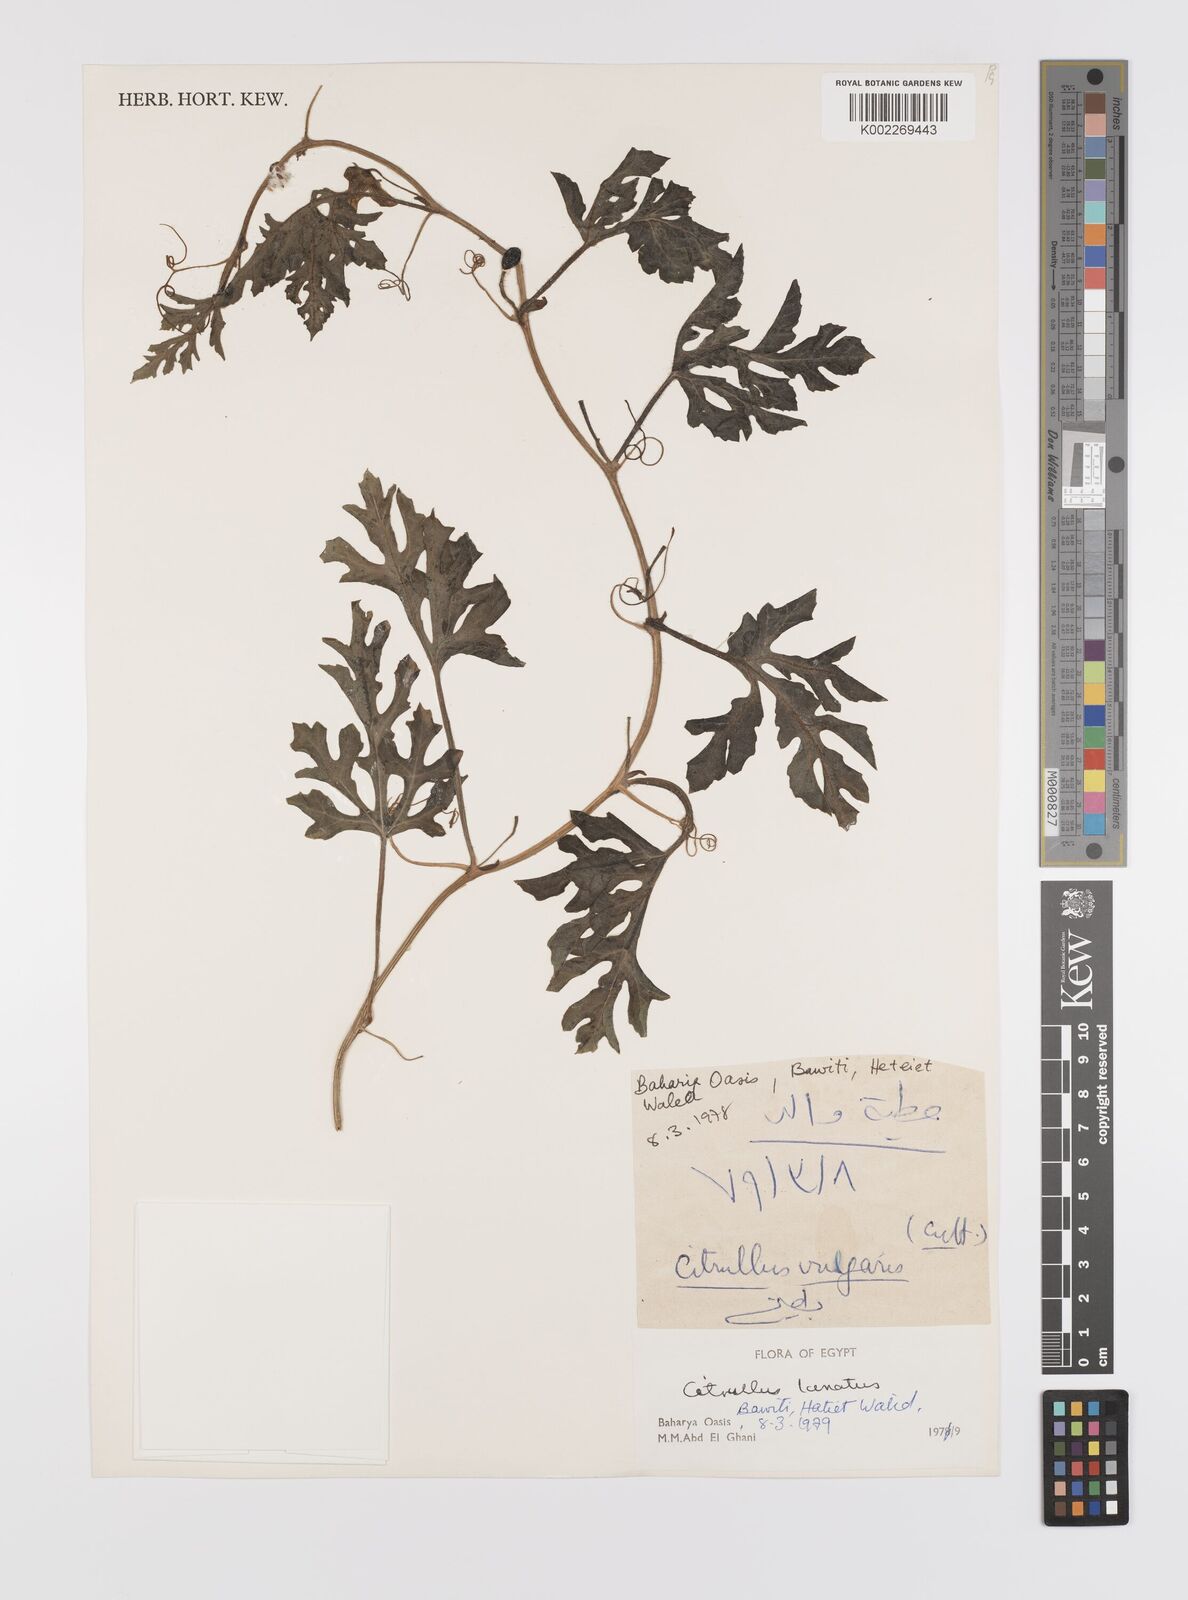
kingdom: Plantae
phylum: Tracheophyta
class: Magnoliopsida
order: Cucurbitales
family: Cucurbitaceae
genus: Citrullus
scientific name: Citrullus lanatus
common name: Watermelon
